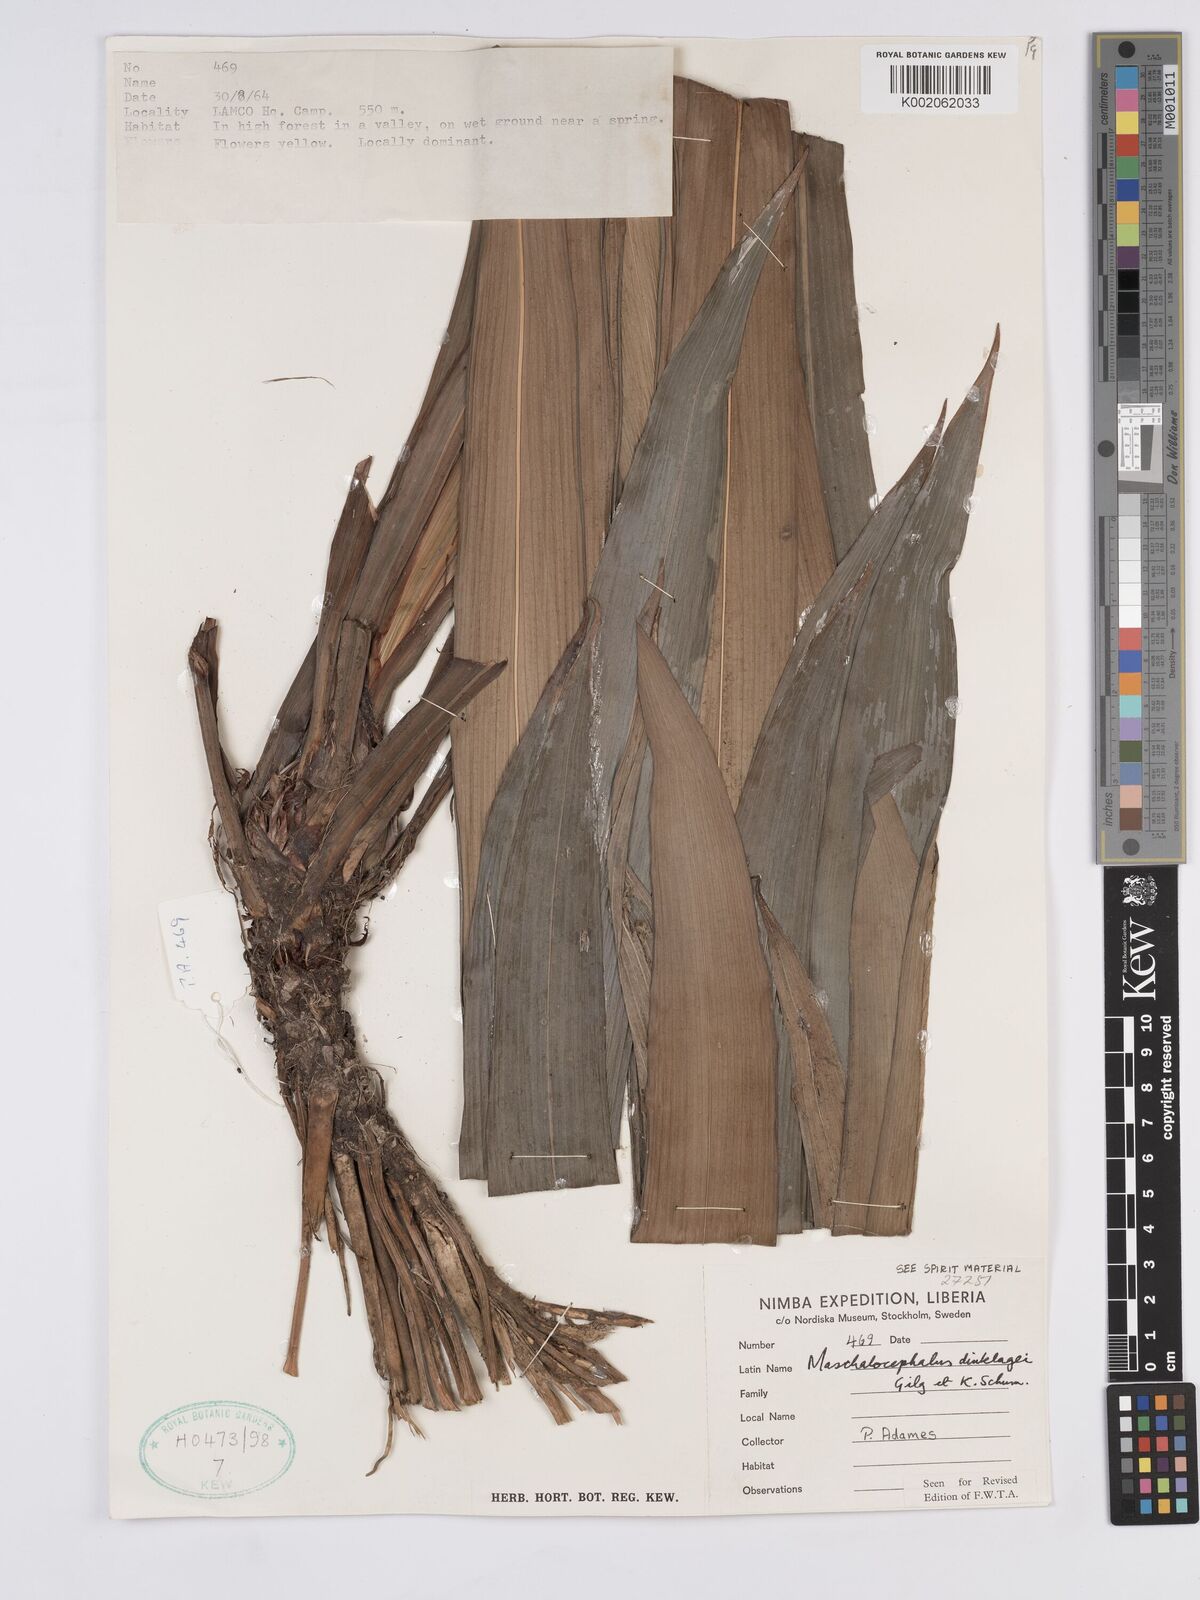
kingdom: Plantae
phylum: Tracheophyta
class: Liliopsida
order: Poales
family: Rapateaceae
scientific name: Rapateaceae
